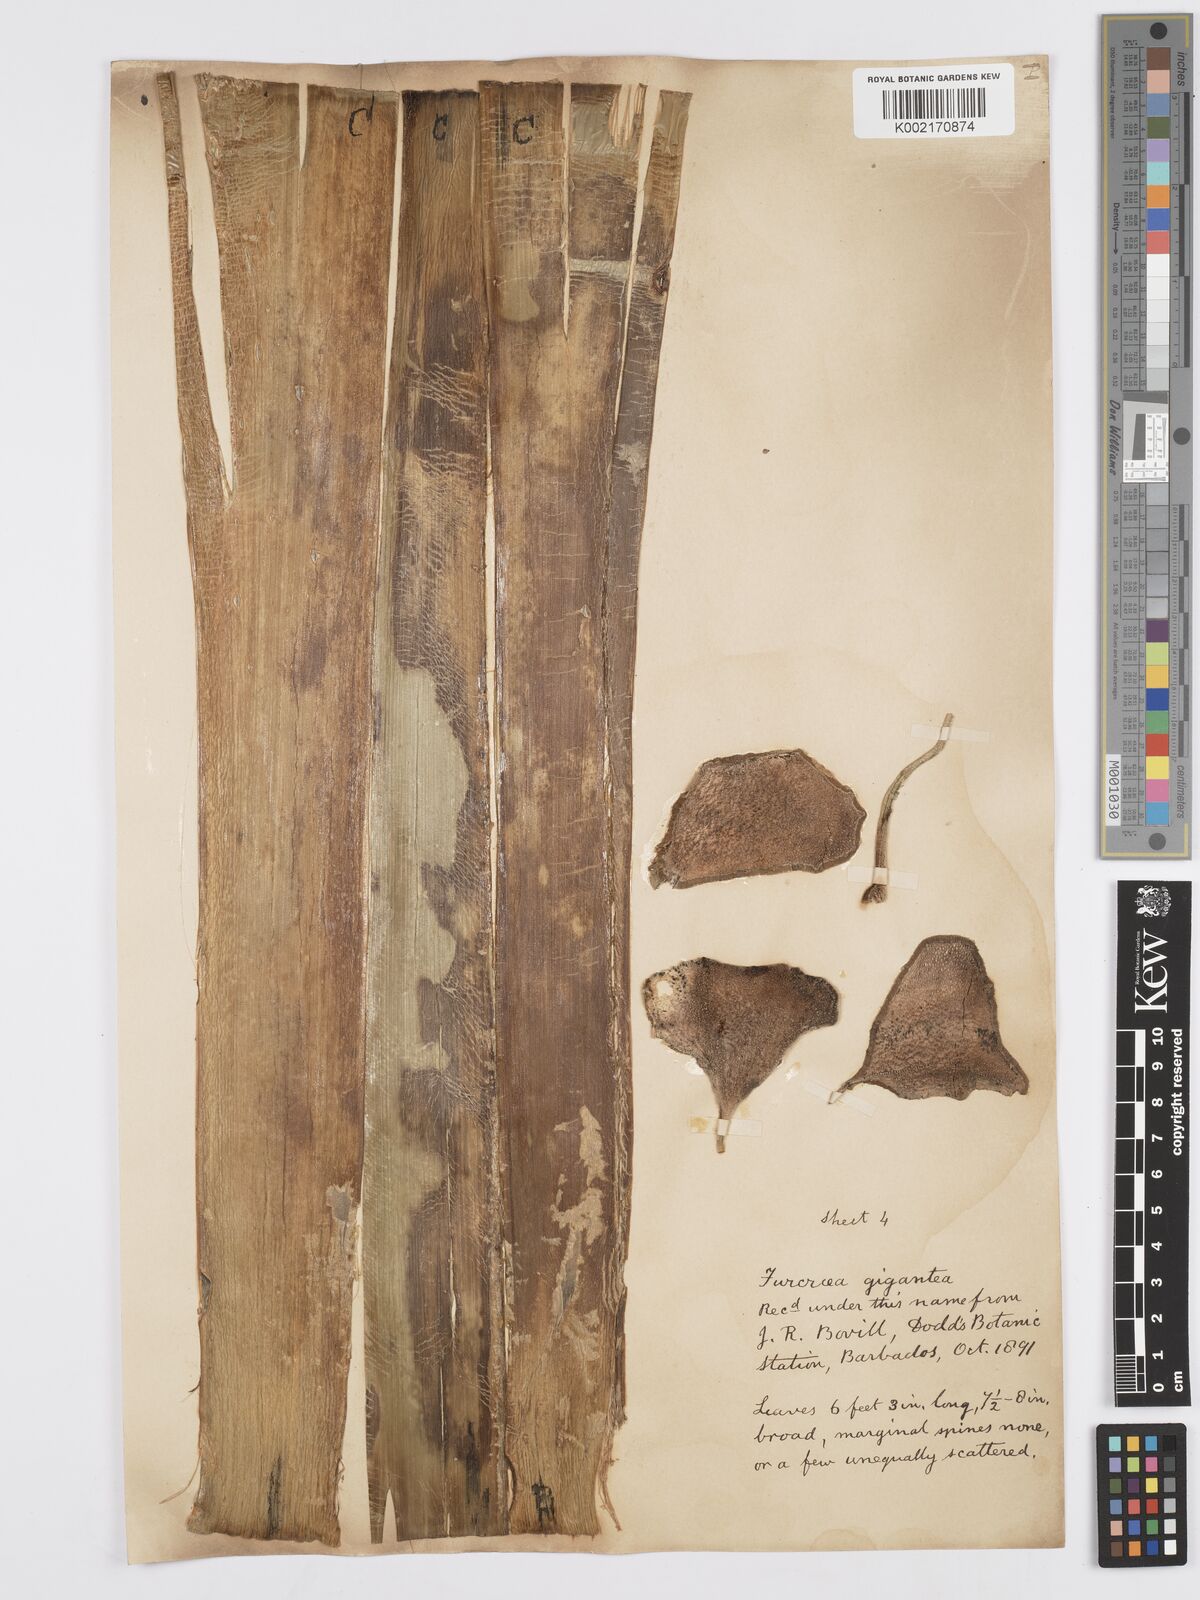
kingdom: Plantae
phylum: Tracheophyta
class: Liliopsida
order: Asparagales
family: Asparagaceae
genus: Furcraea
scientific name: Furcraea foetida
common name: Mauritius hemp
